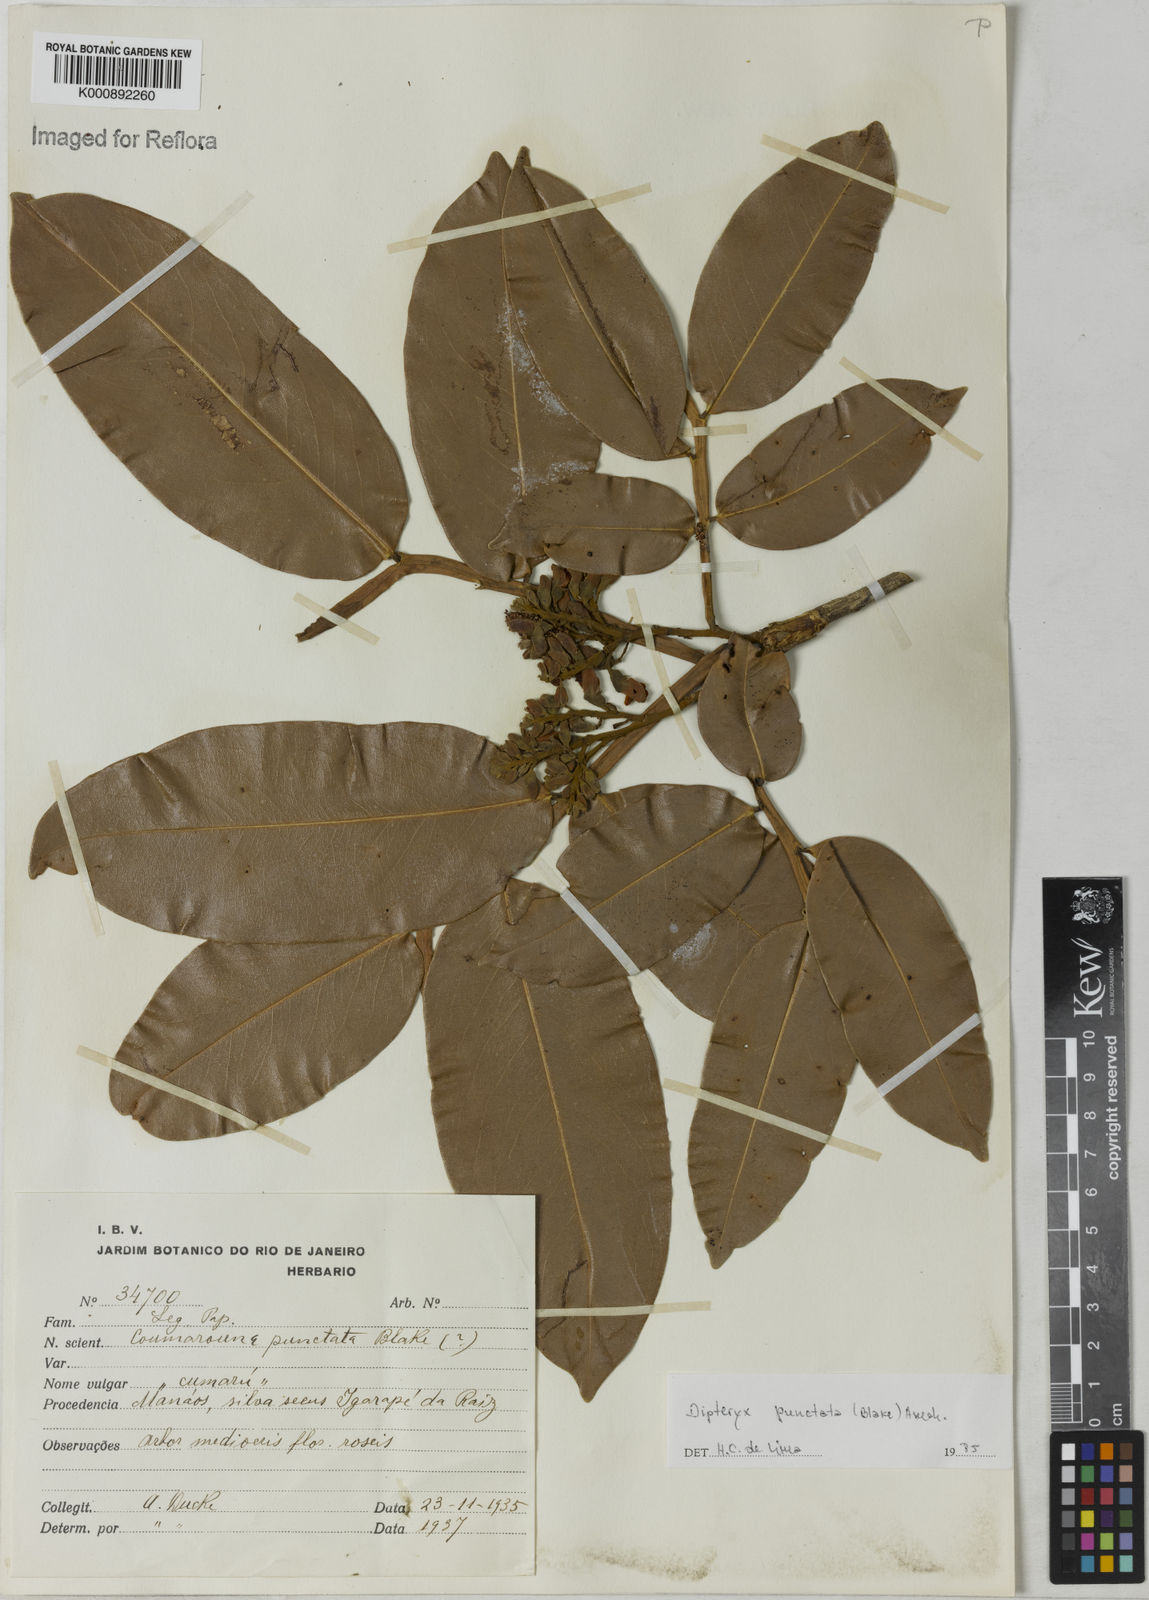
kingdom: Plantae
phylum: Tracheophyta
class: Magnoliopsida
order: Fabales
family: Fabaceae
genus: Dipteryx
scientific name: Dipteryx punctata
